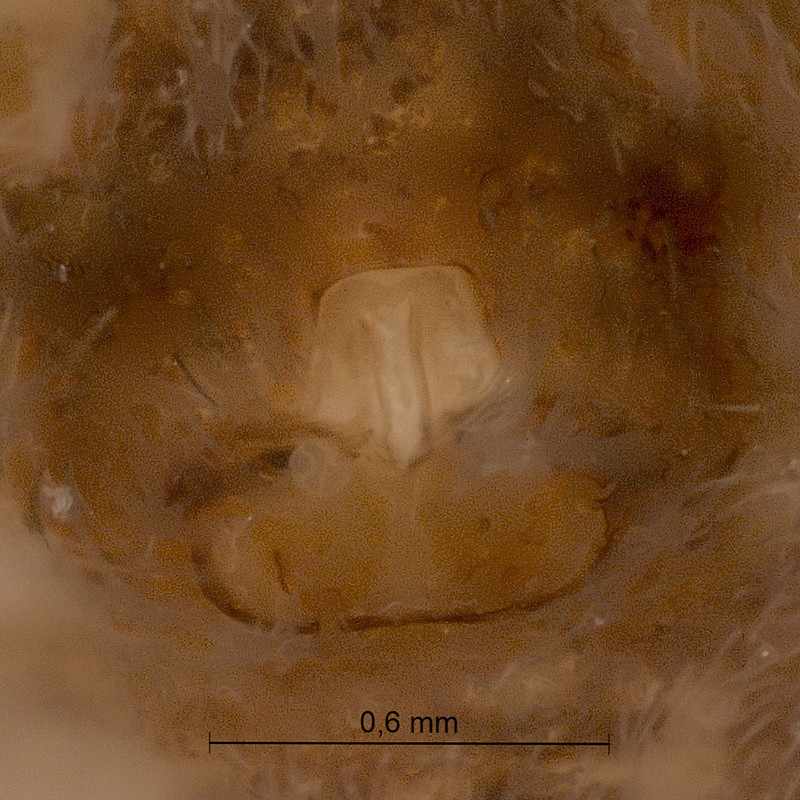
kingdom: Animalia
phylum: Arthropoda
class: Arachnida
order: Araneae
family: Lycosidae
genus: Pardosa
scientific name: Pardosa lugubris
